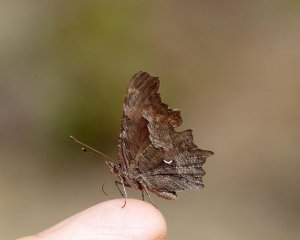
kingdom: Animalia
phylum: Arthropoda
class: Insecta
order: Lepidoptera
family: Nymphalidae
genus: Polygonia
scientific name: Polygonia gracilis
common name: Hoary Comma
